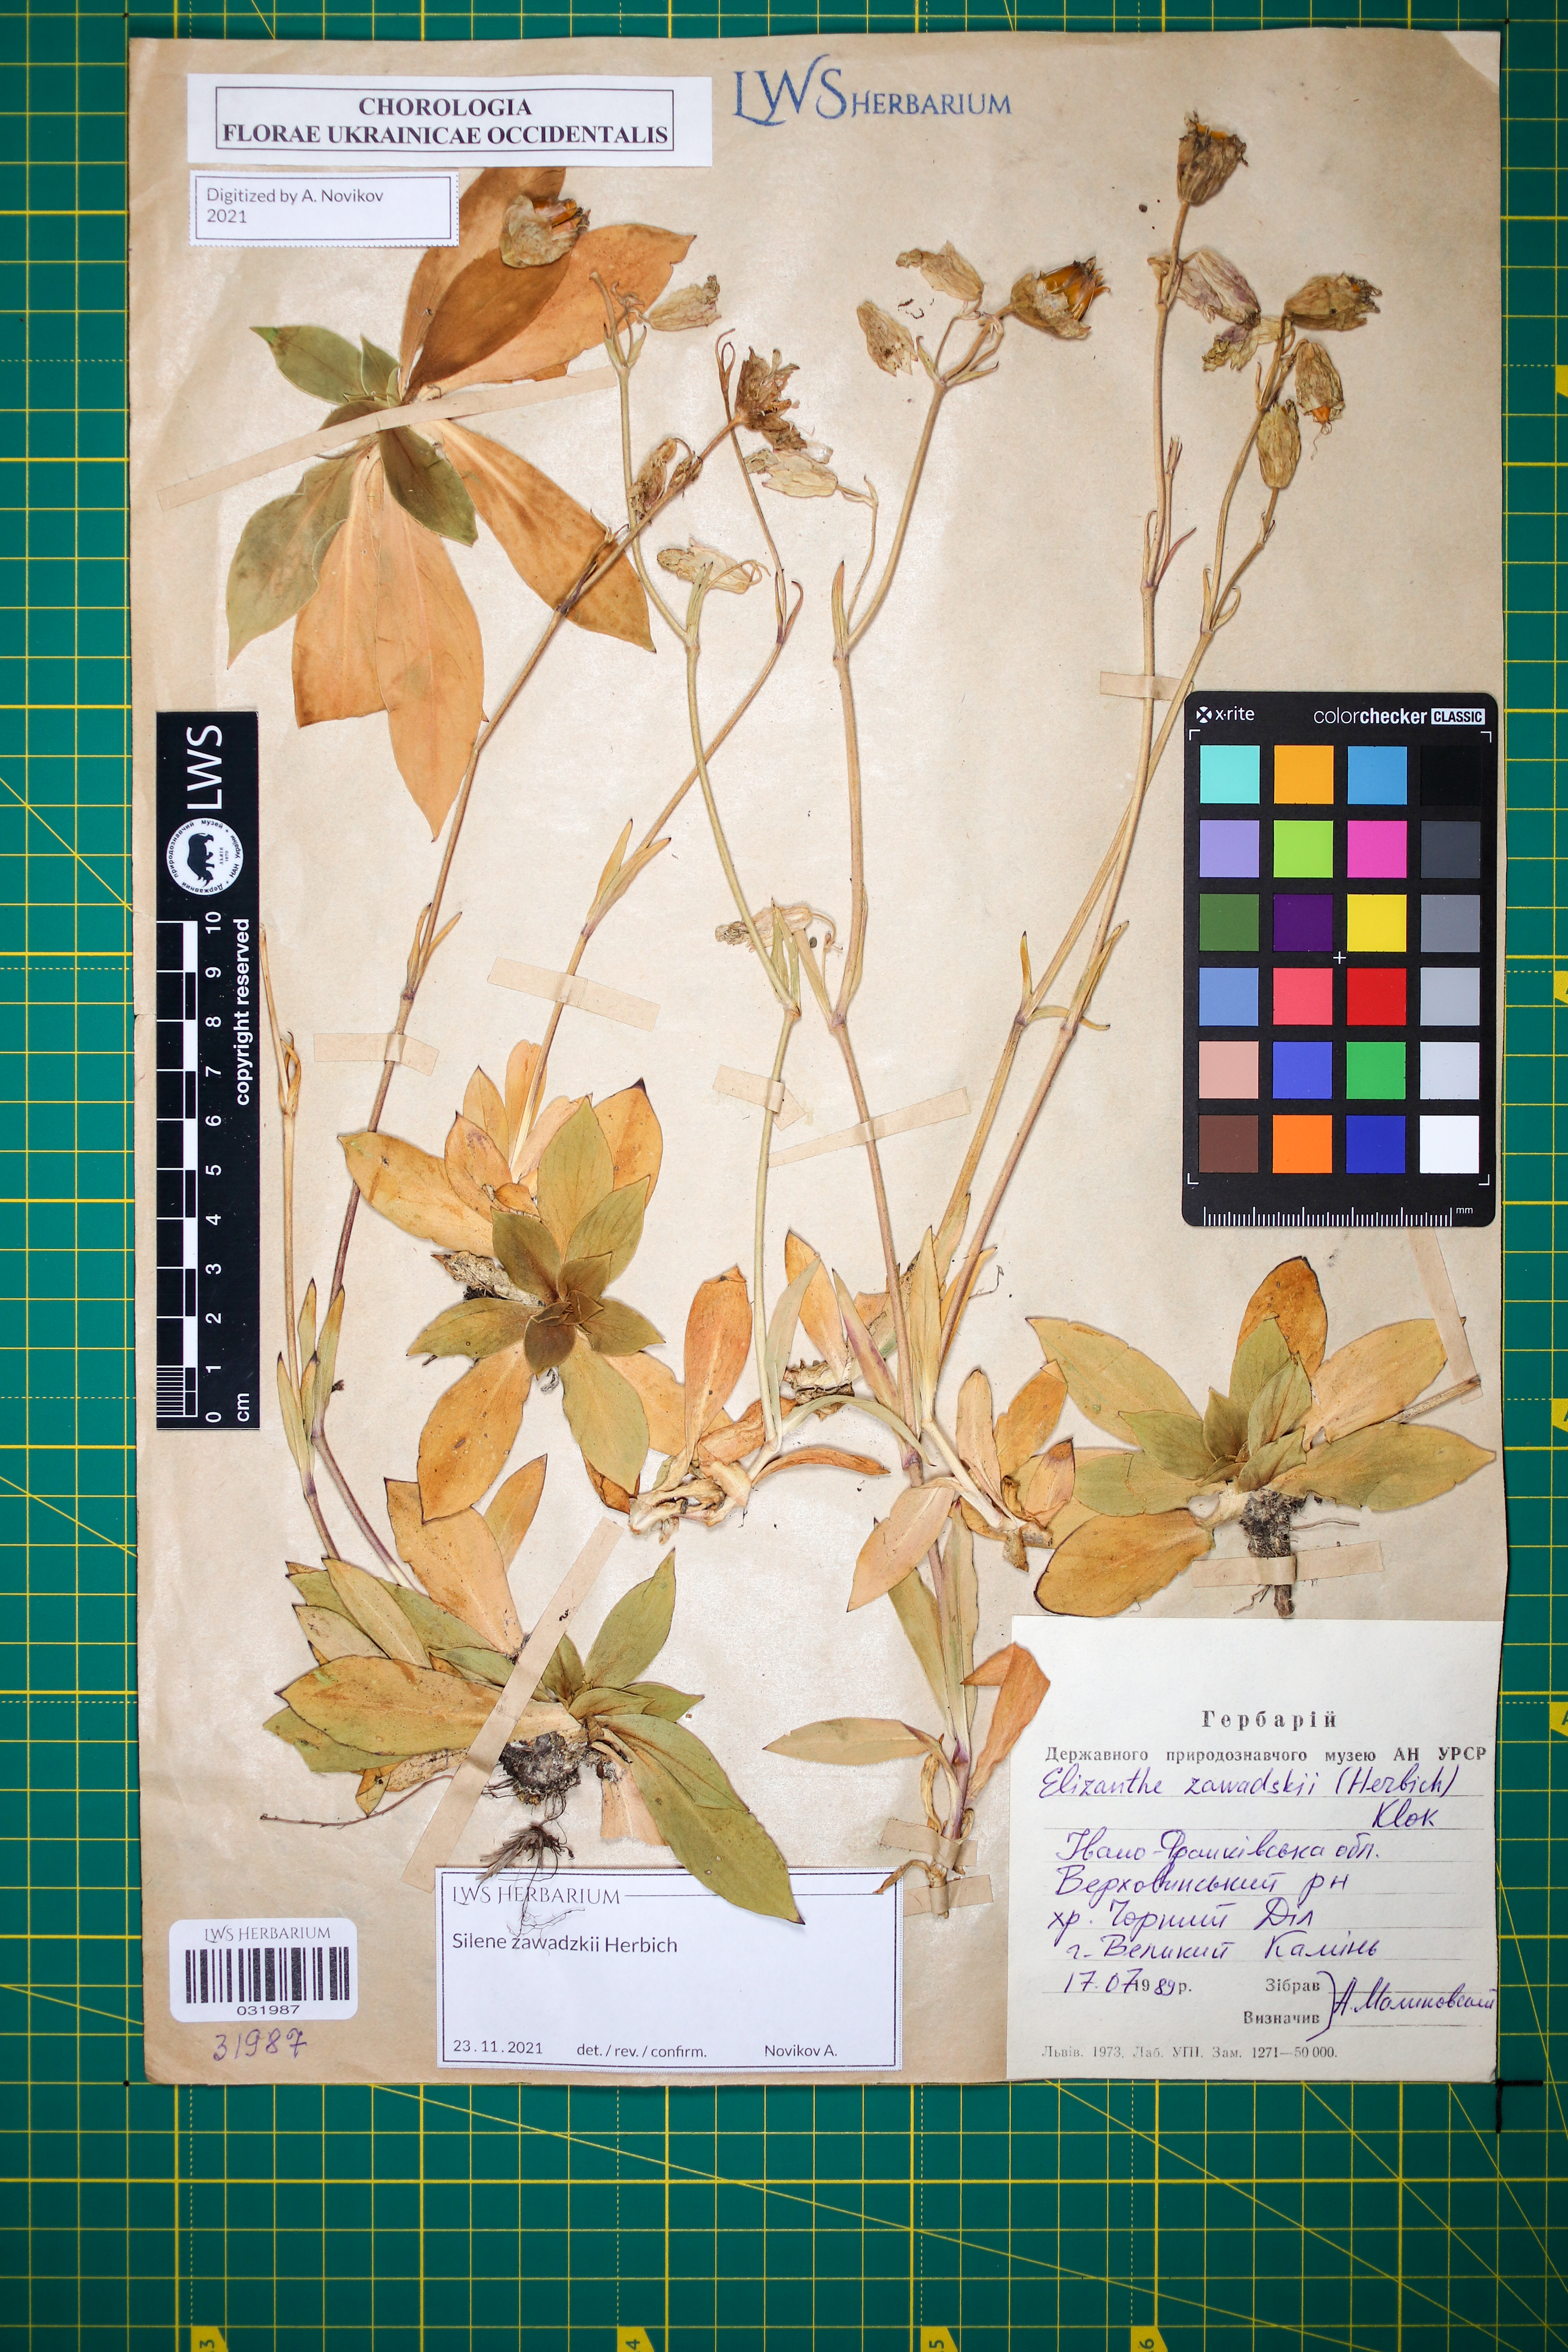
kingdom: Plantae
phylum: Tracheophyta
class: Magnoliopsida
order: Caryophyllales
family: Caryophyllaceae
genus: Silene
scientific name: Silene zawadzkii
